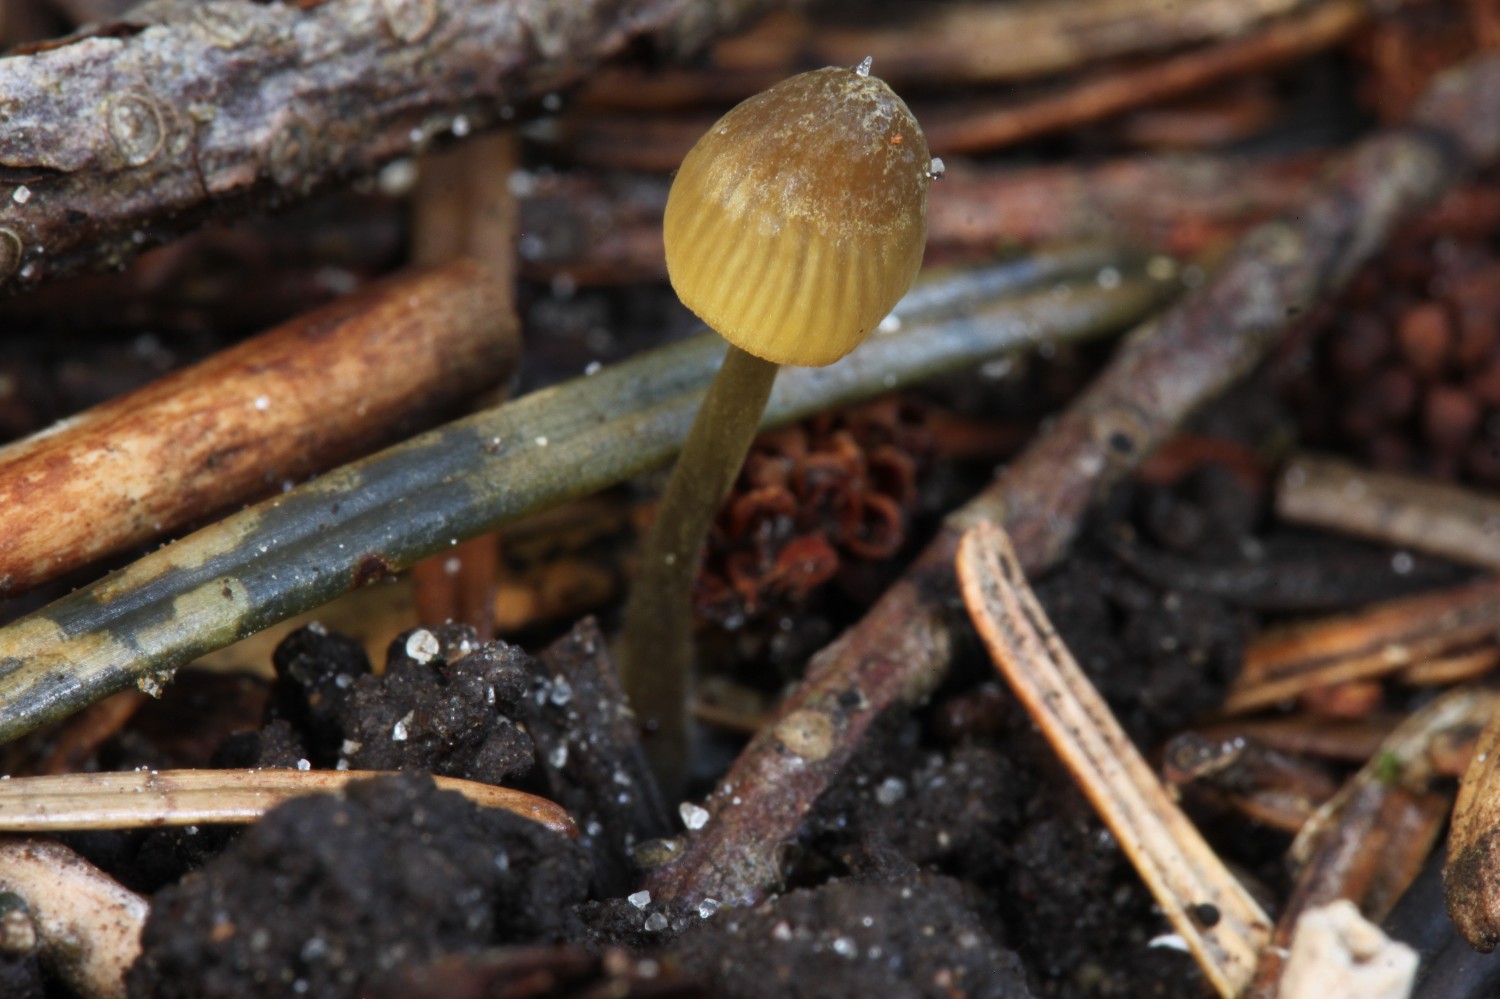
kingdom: Fungi
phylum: Basidiomycota
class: Agaricomycetes
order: Agaricales
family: Mycenaceae
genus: Mycena
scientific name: Mycena citrinomarginata
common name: gulægget huesvamp
